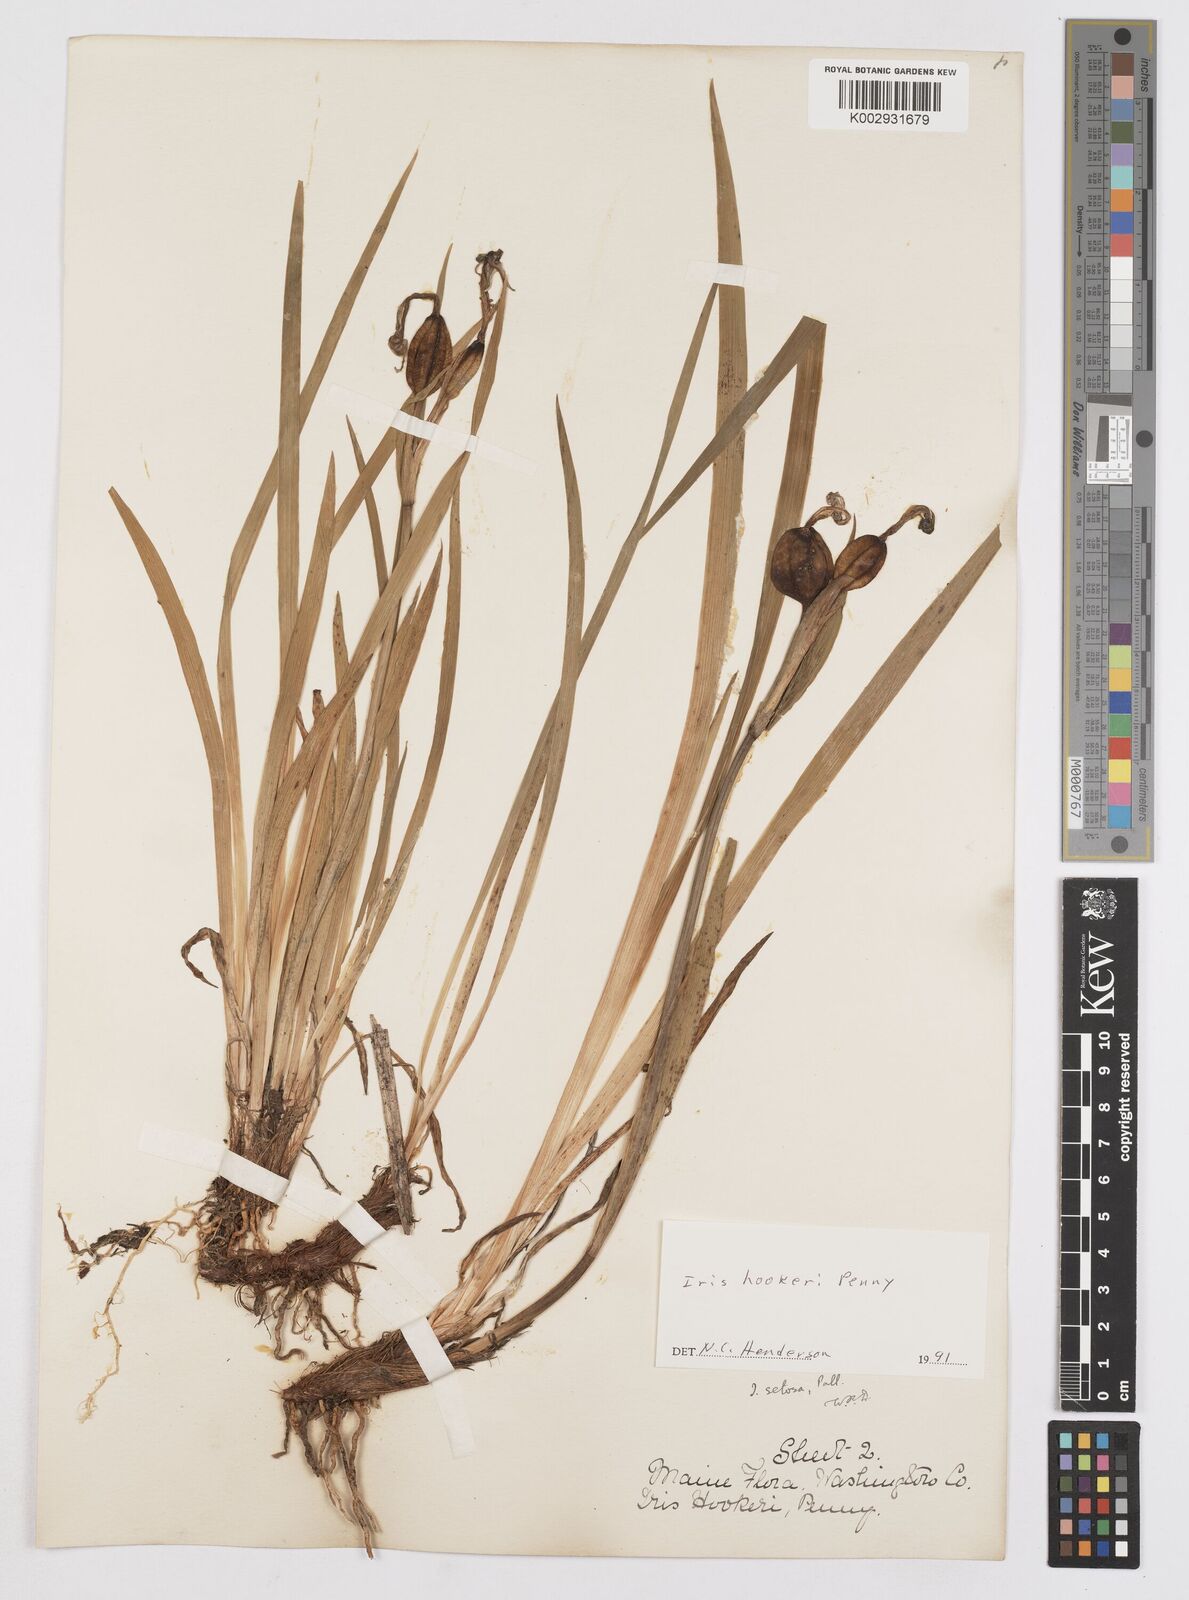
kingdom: Plantae
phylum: Tracheophyta
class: Liliopsida
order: Asparagales
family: Iridaceae
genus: Iris
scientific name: Iris setosa
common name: Arctic blue flag
